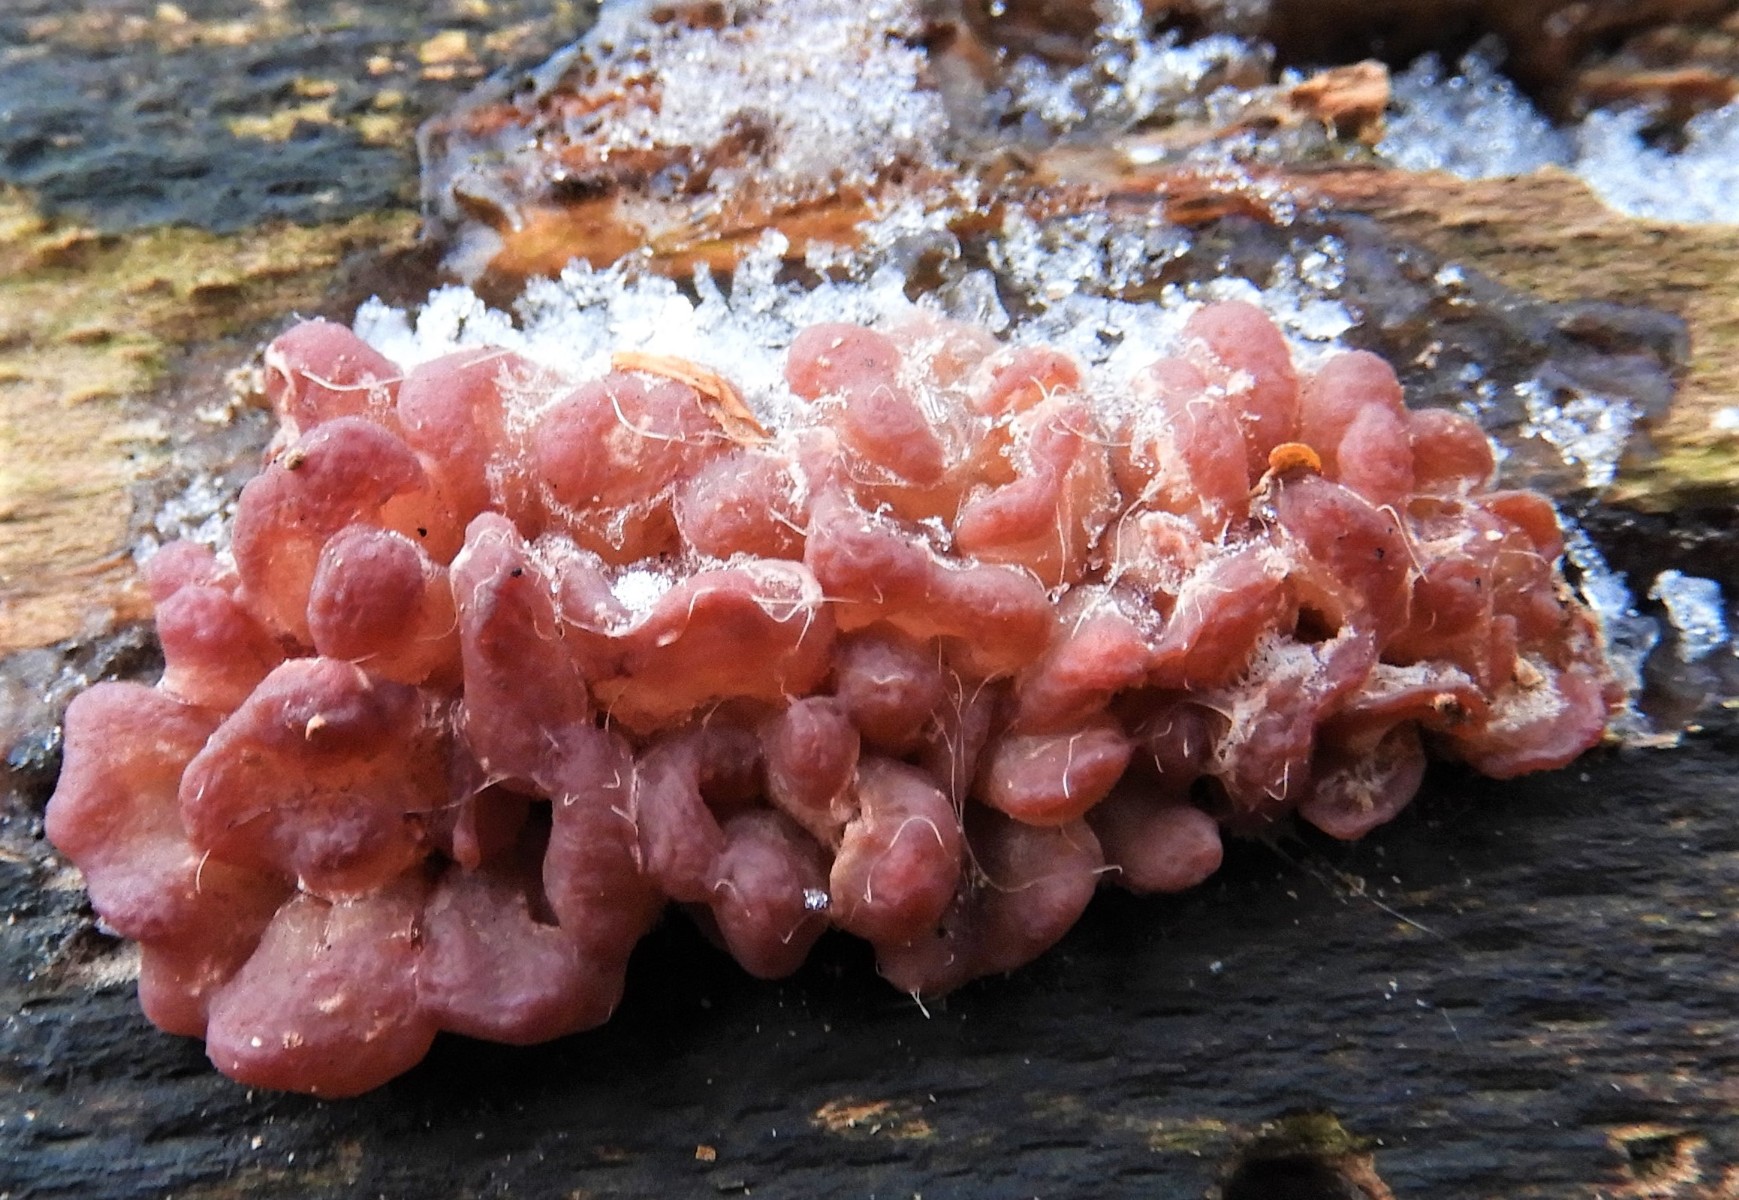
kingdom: Fungi
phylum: Ascomycota
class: Leotiomycetes
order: Helotiales
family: Gelatinodiscaceae
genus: Ascocoryne
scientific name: Ascocoryne sarcoides
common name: rødlilla sejskive
